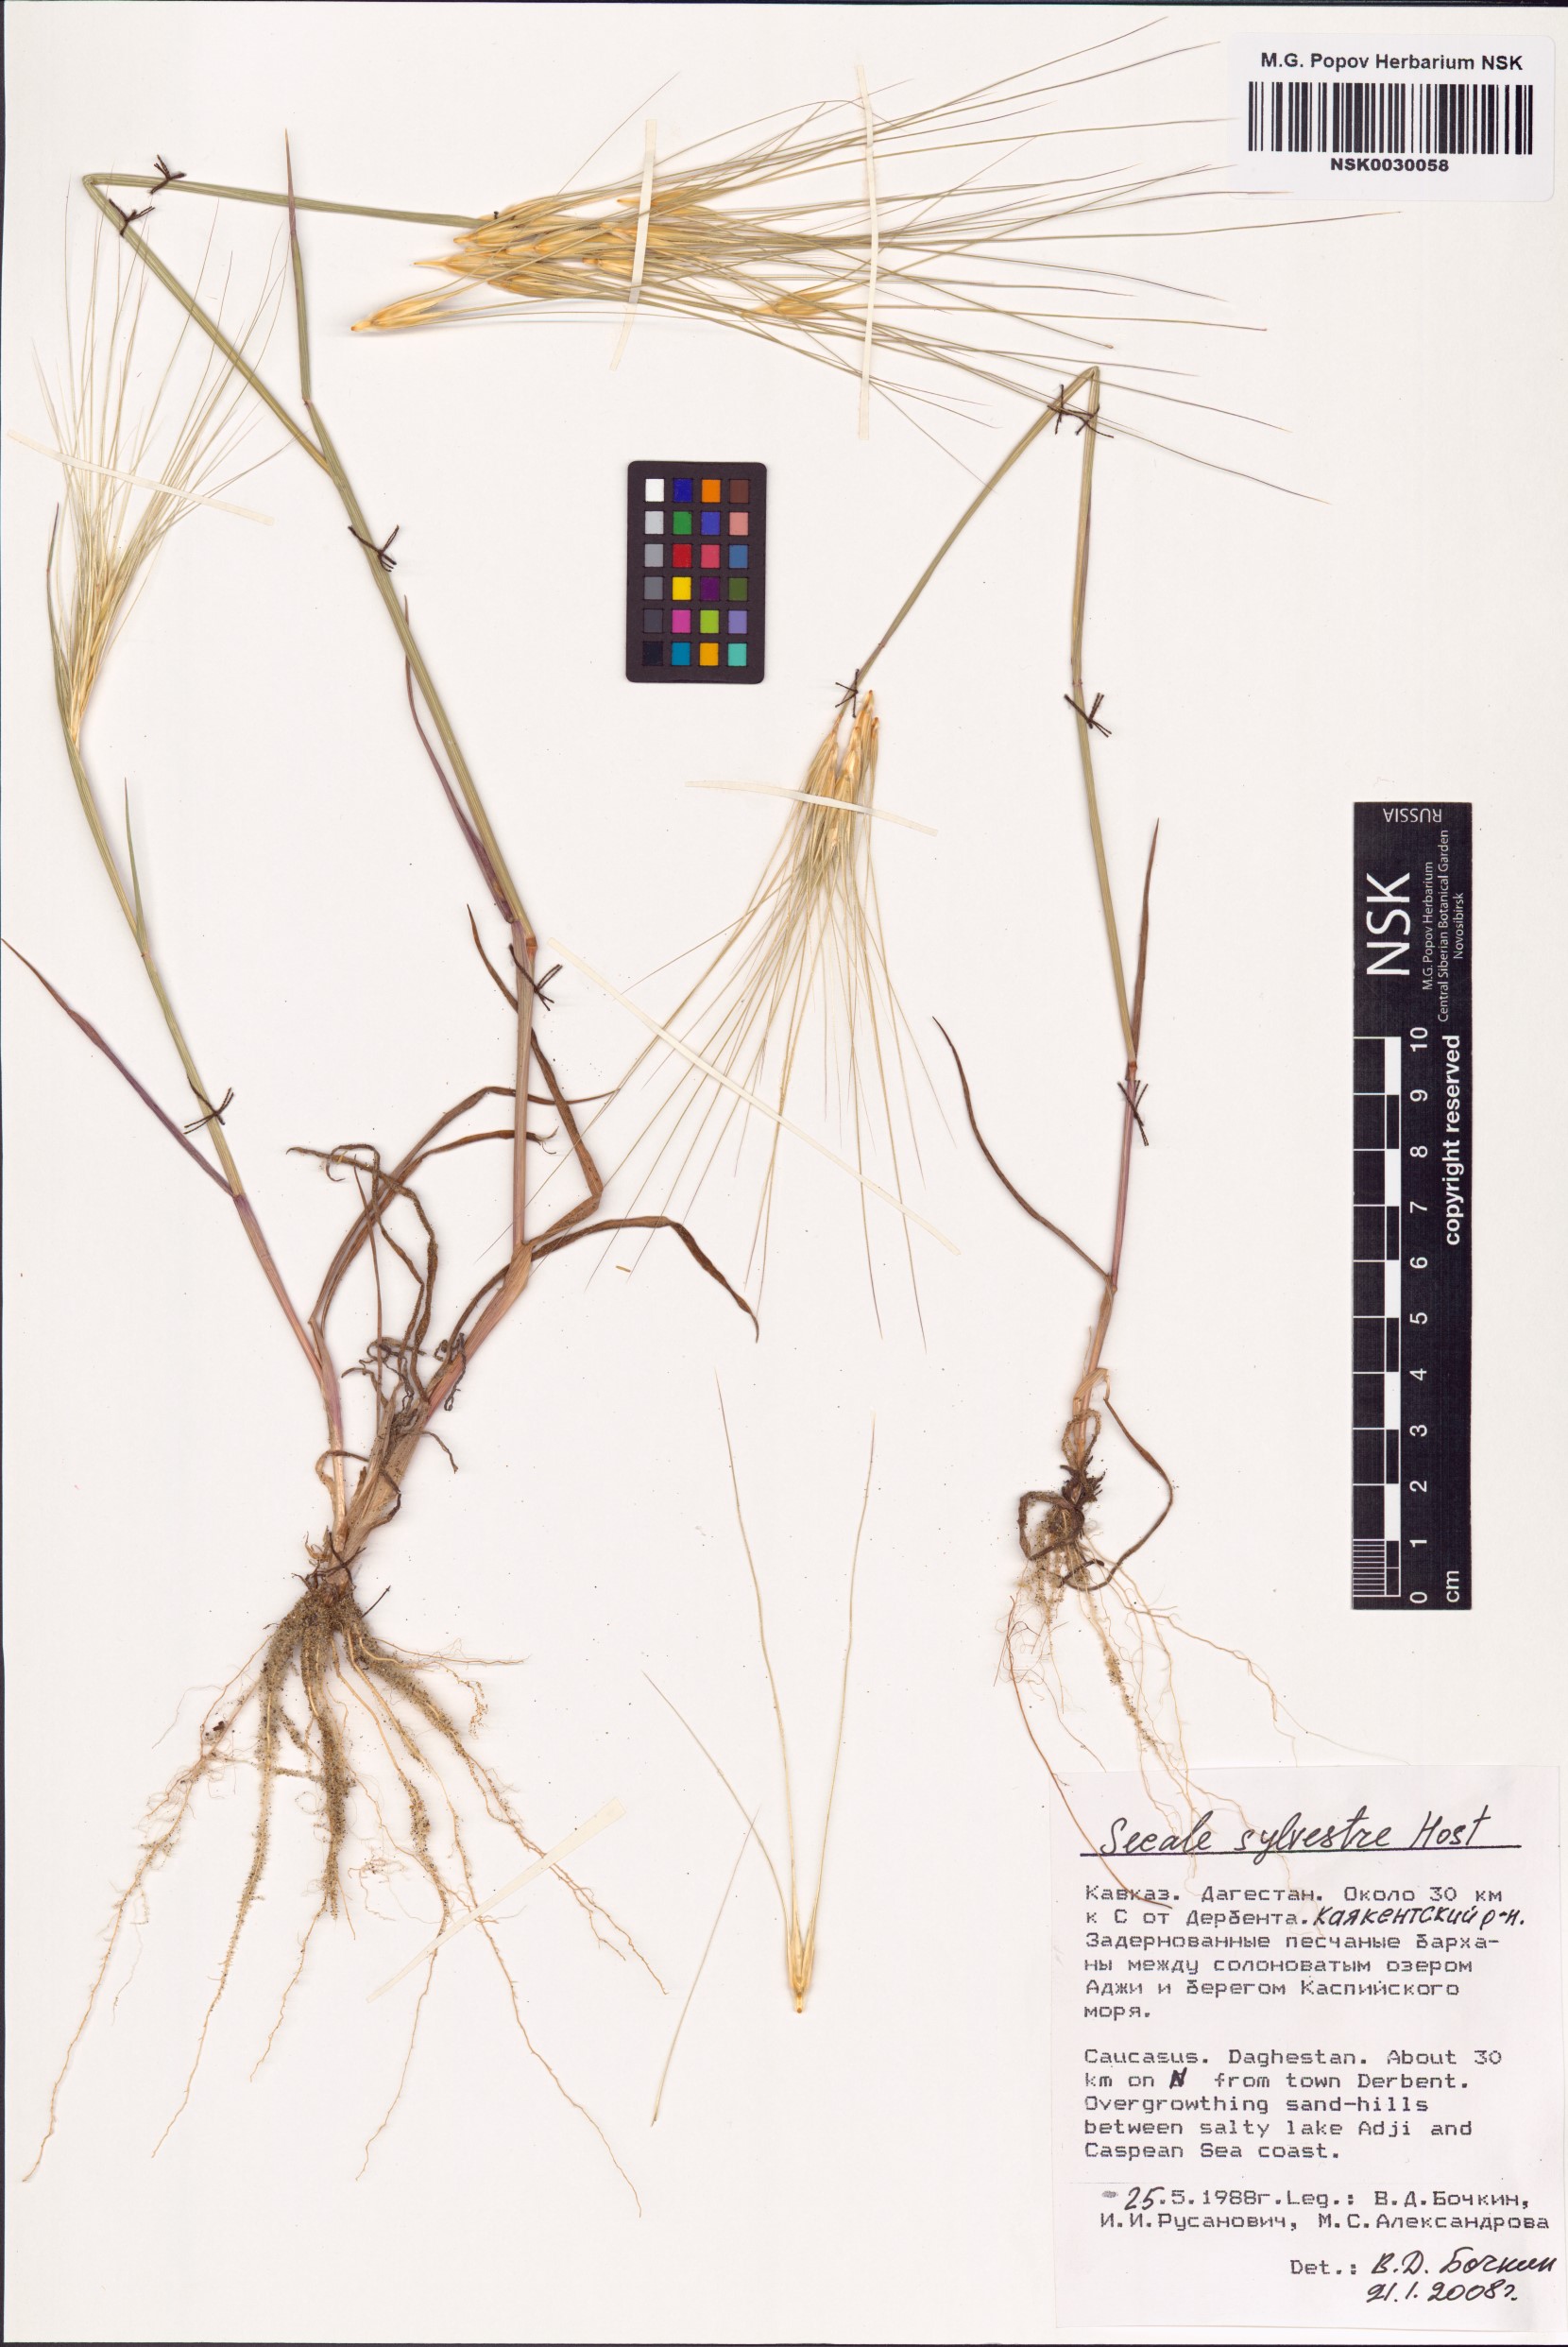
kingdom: Plantae
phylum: Tracheophyta
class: Liliopsida
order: Poales
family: Poaceae
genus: Secale
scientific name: Secale sylvestre
